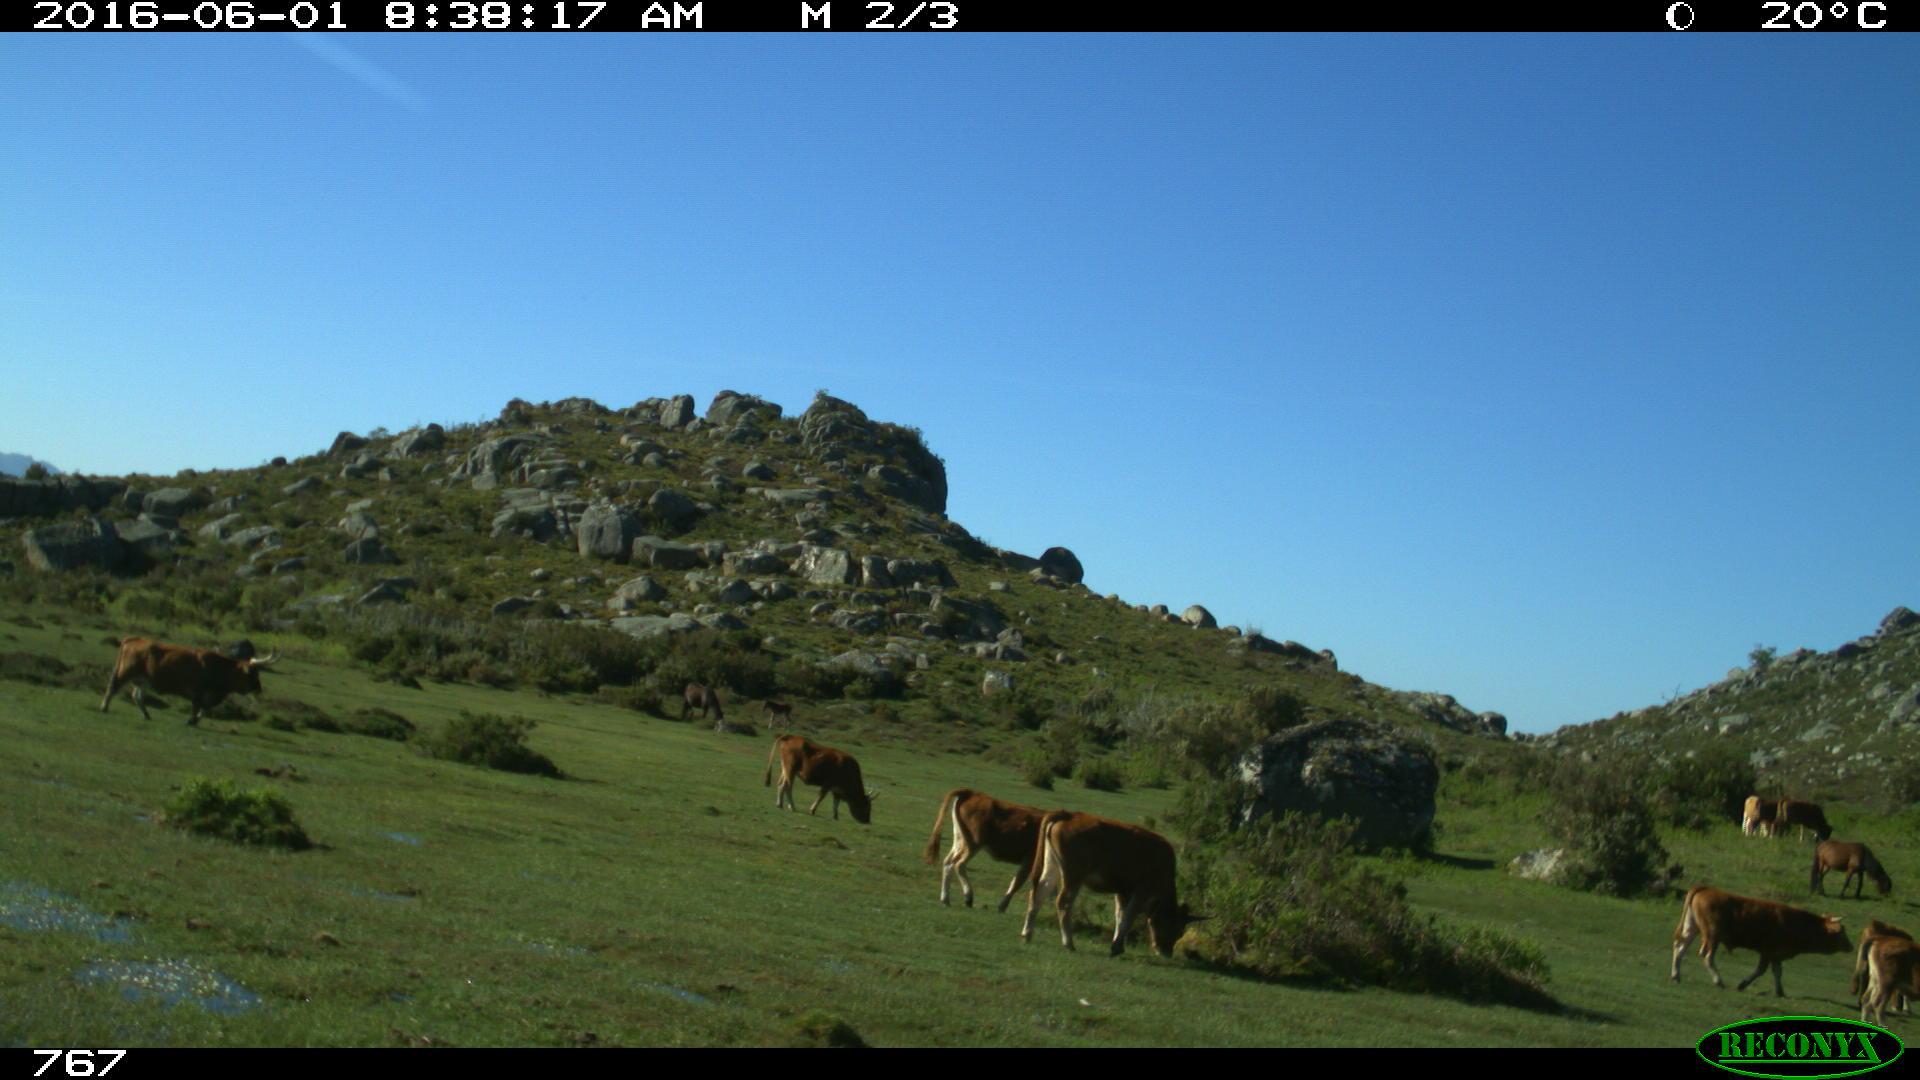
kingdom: Animalia
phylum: Chordata
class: Mammalia
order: Artiodactyla
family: Bovidae
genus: Bos
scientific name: Bos taurus
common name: Domesticated cattle
